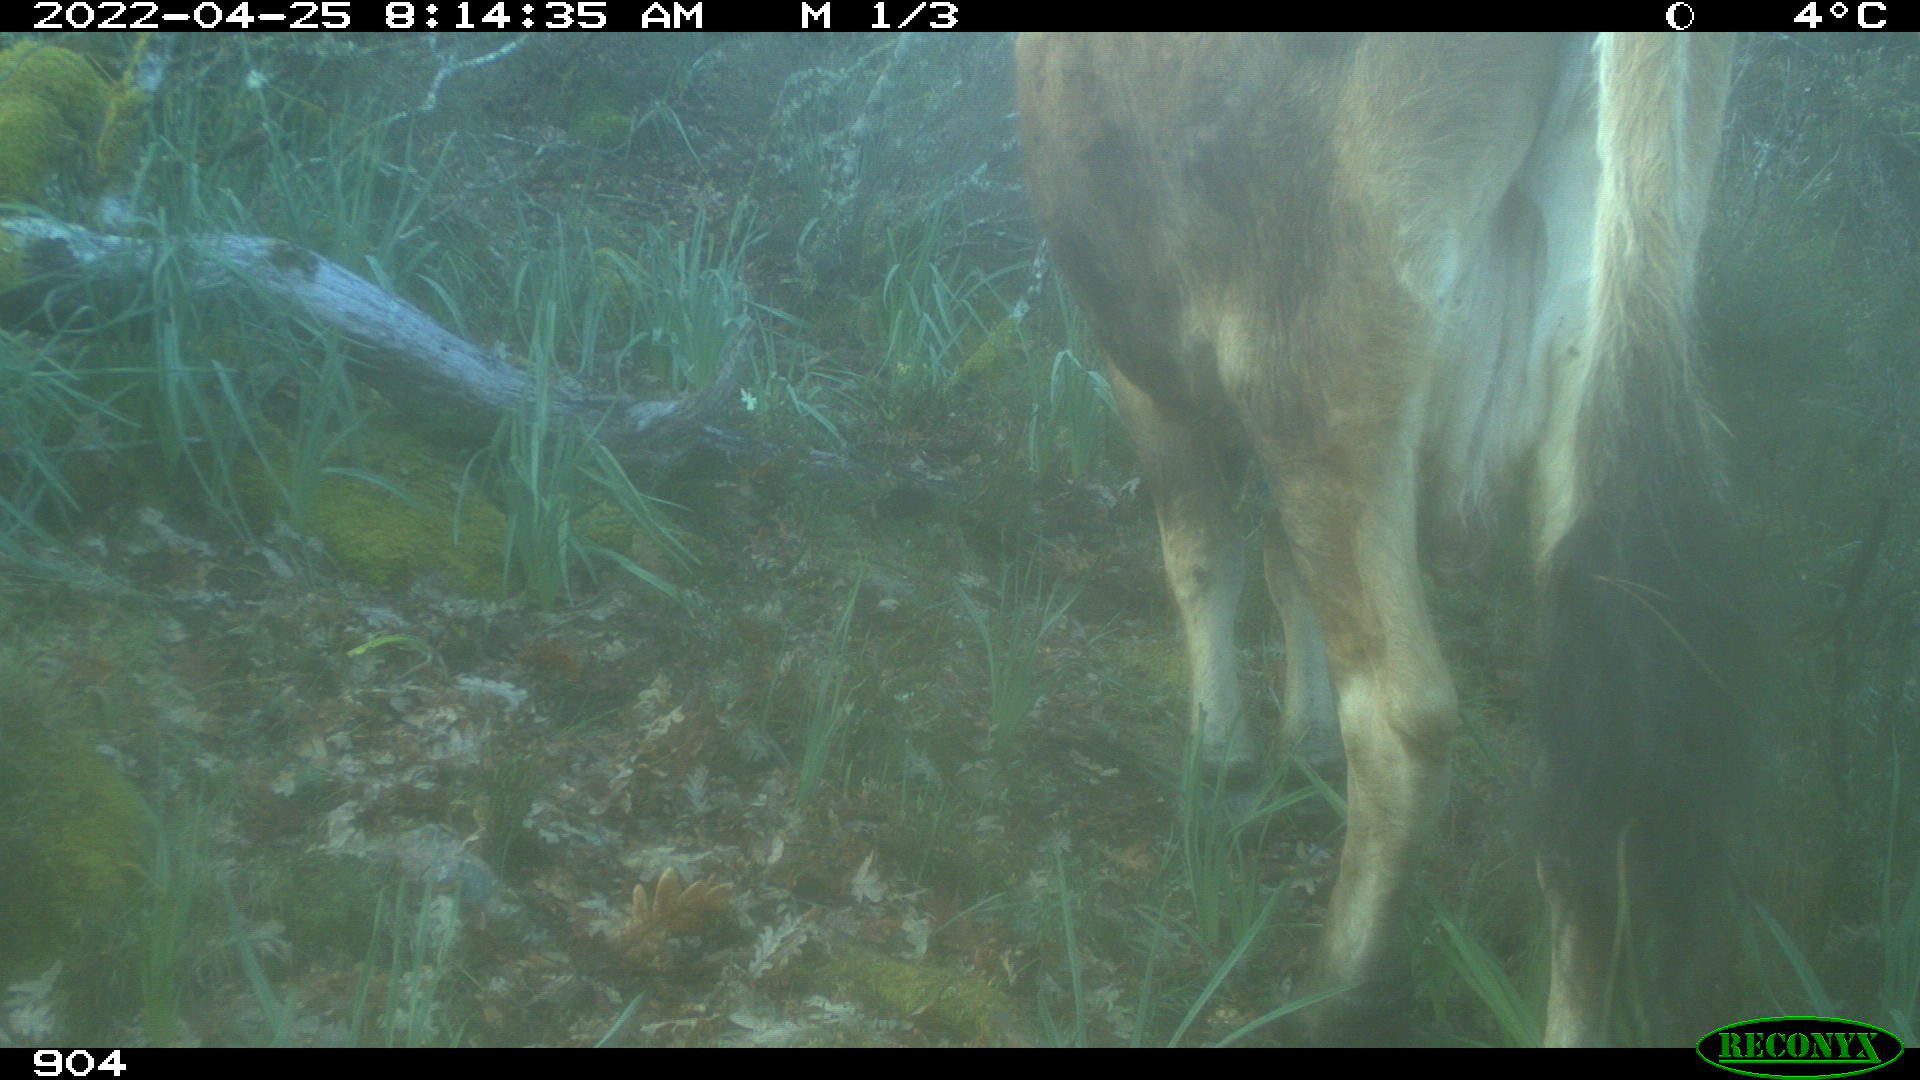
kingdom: Animalia
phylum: Chordata
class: Mammalia
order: Artiodactyla
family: Bovidae
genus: Bos
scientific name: Bos taurus
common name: Domesticated cattle
